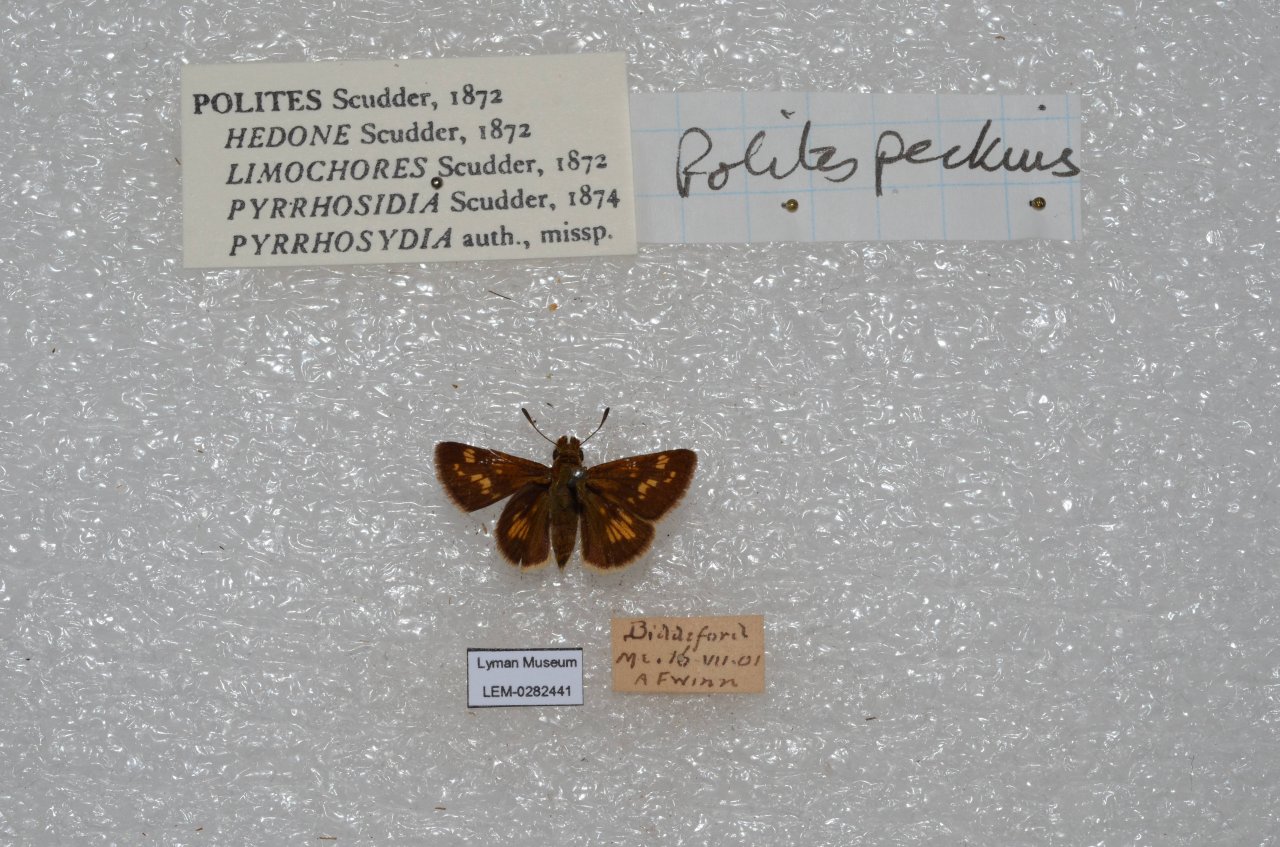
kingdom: Animalia
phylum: Arthropoda
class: Insecta
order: Lepidoptera
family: Hesperiidae
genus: Polites
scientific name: Polites coras
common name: Peck's Skipper
